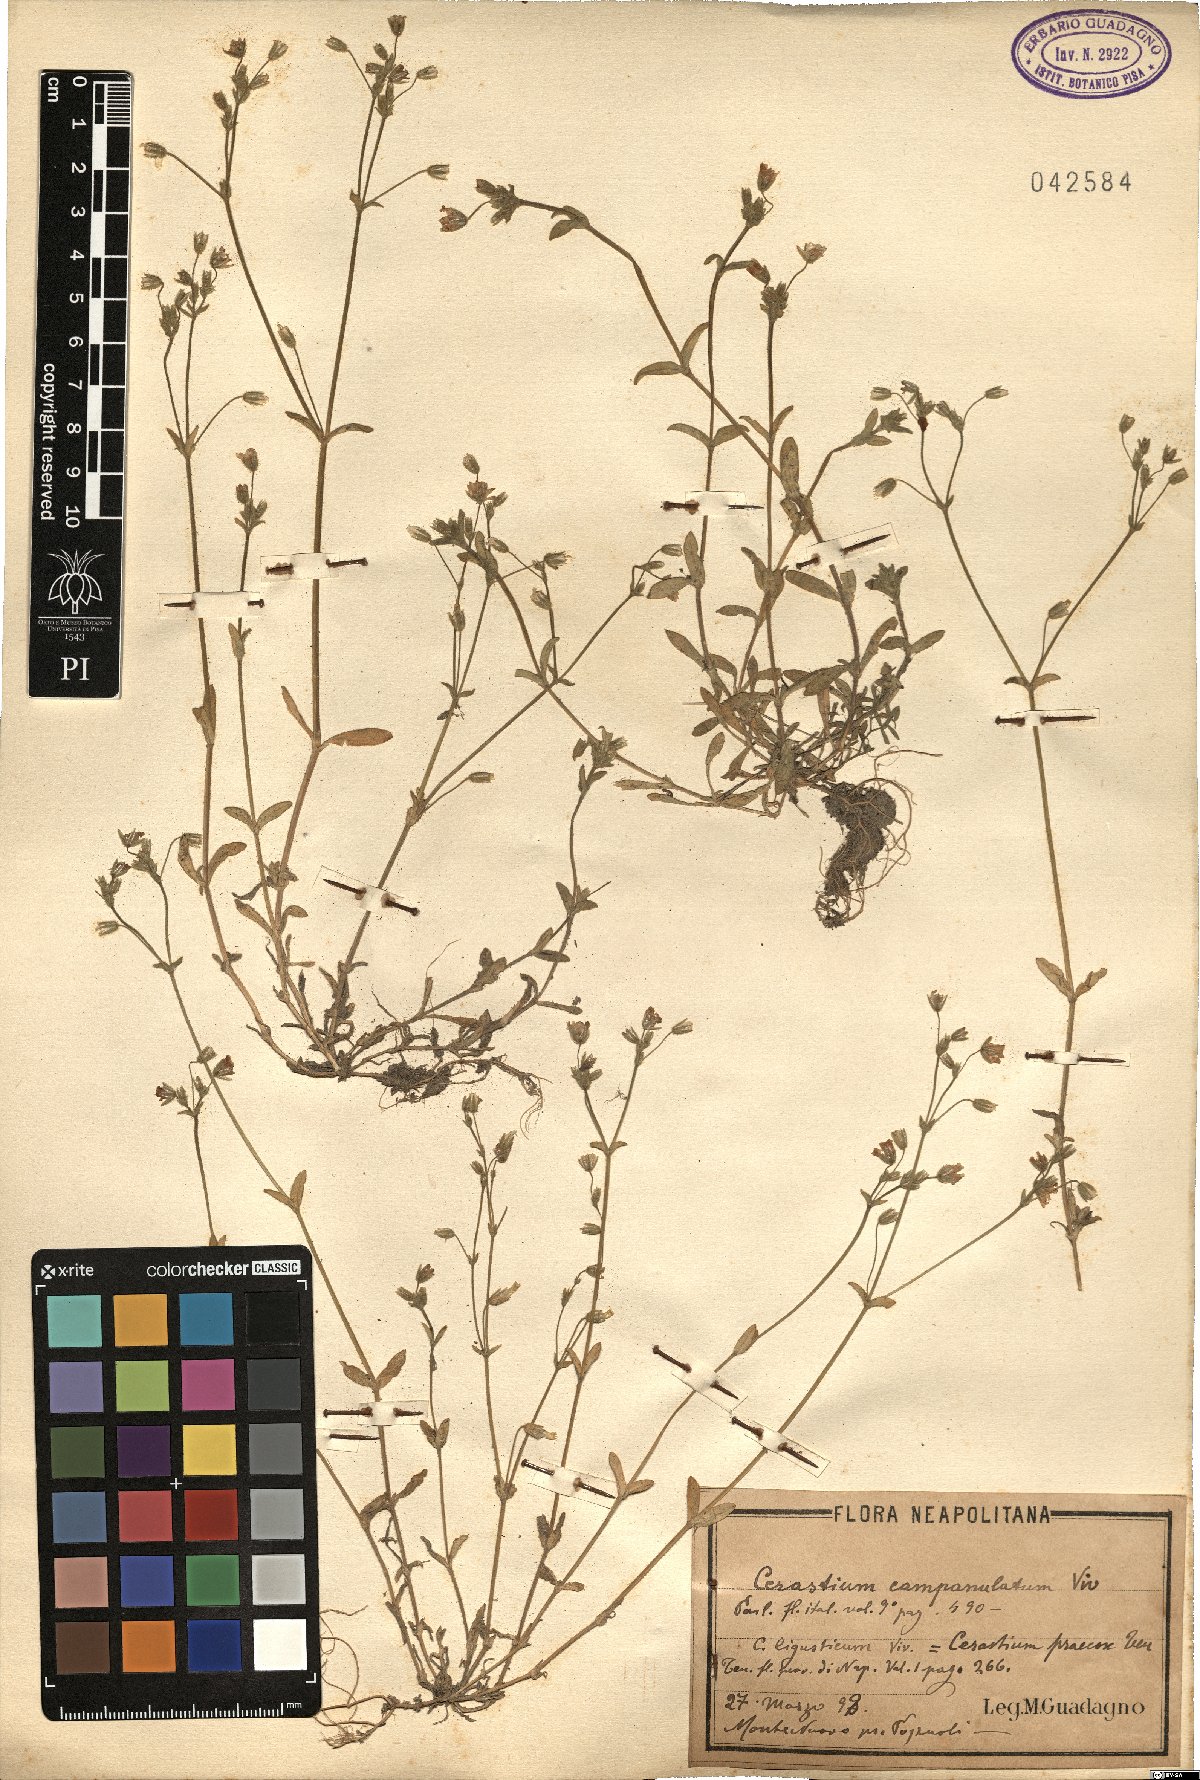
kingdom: Plantae
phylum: Tracheophyta
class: Magnoliopsida
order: Caryophyllales
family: Caryophyllaceae
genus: Cerastium
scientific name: Cerastium ligusticum
